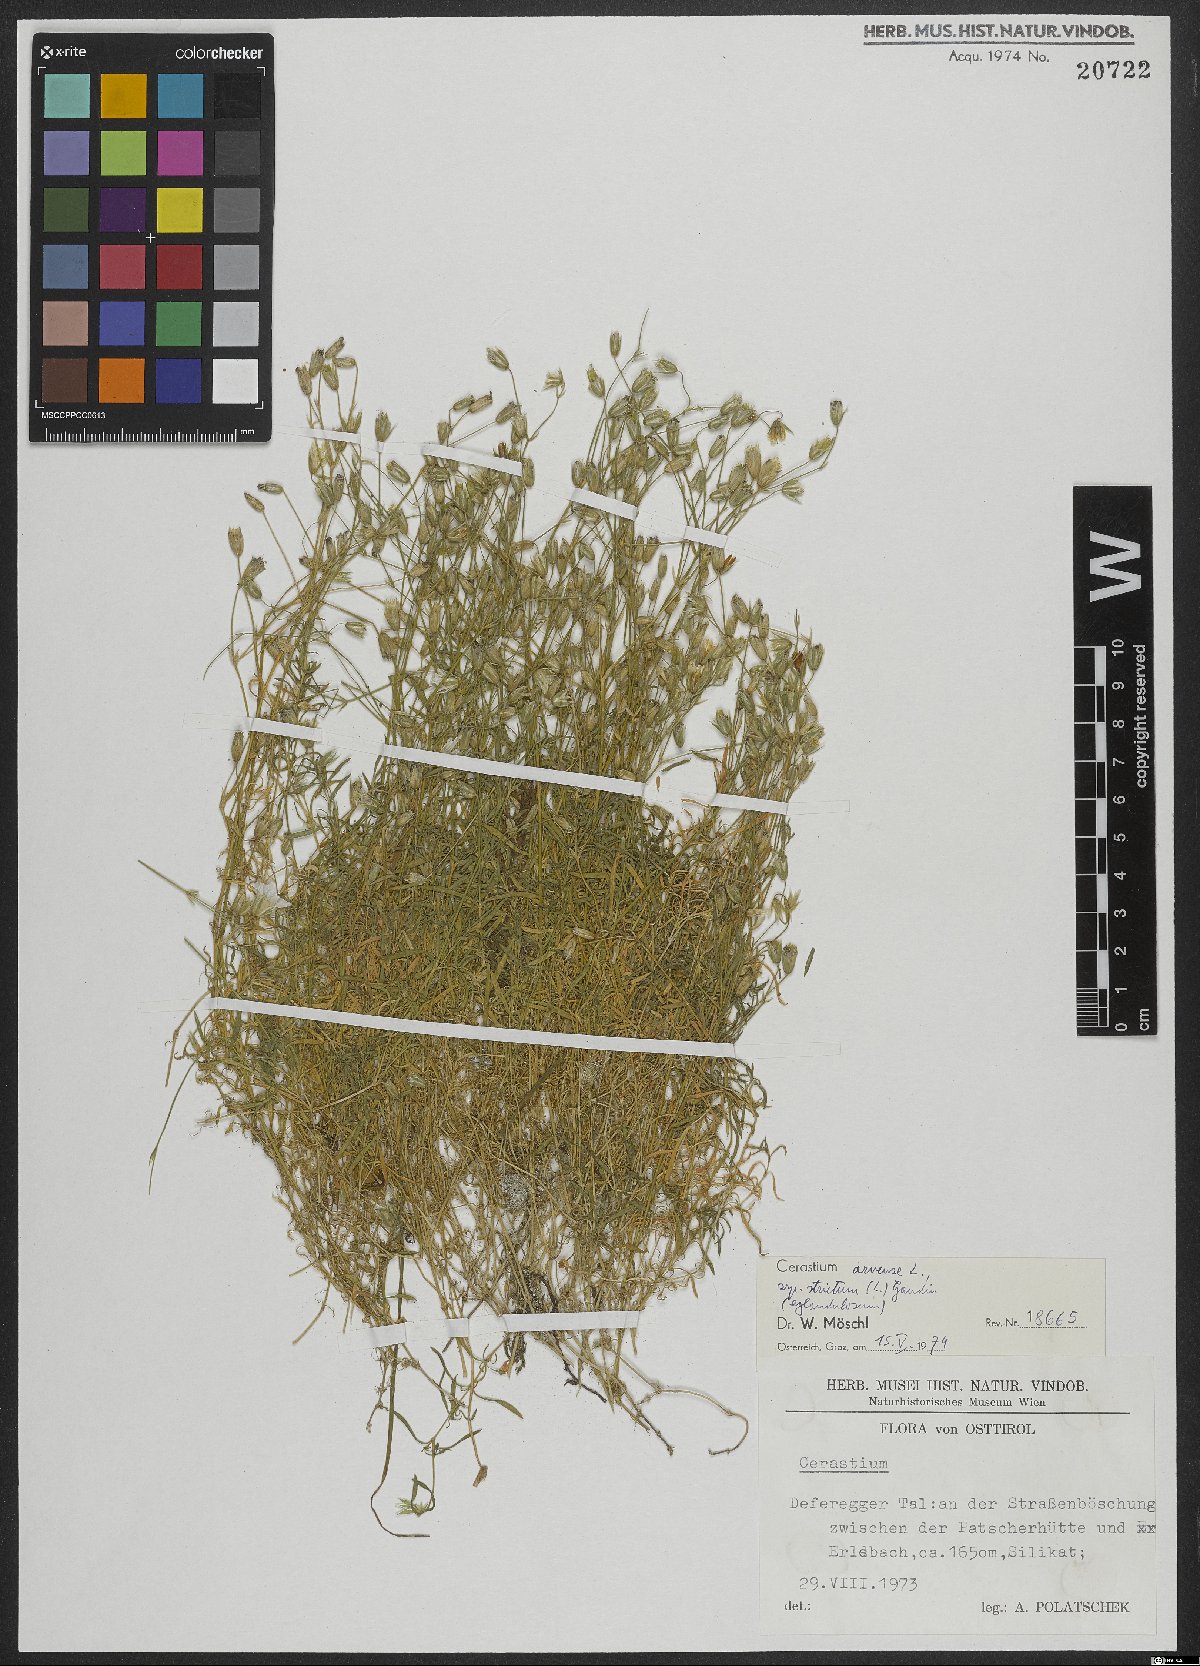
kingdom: Plantae
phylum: Tracheophyta
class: Magnoliopsida
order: Caryophyllales
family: Caryophyllaceae
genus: Cerastium
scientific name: Cerastium elongatum
